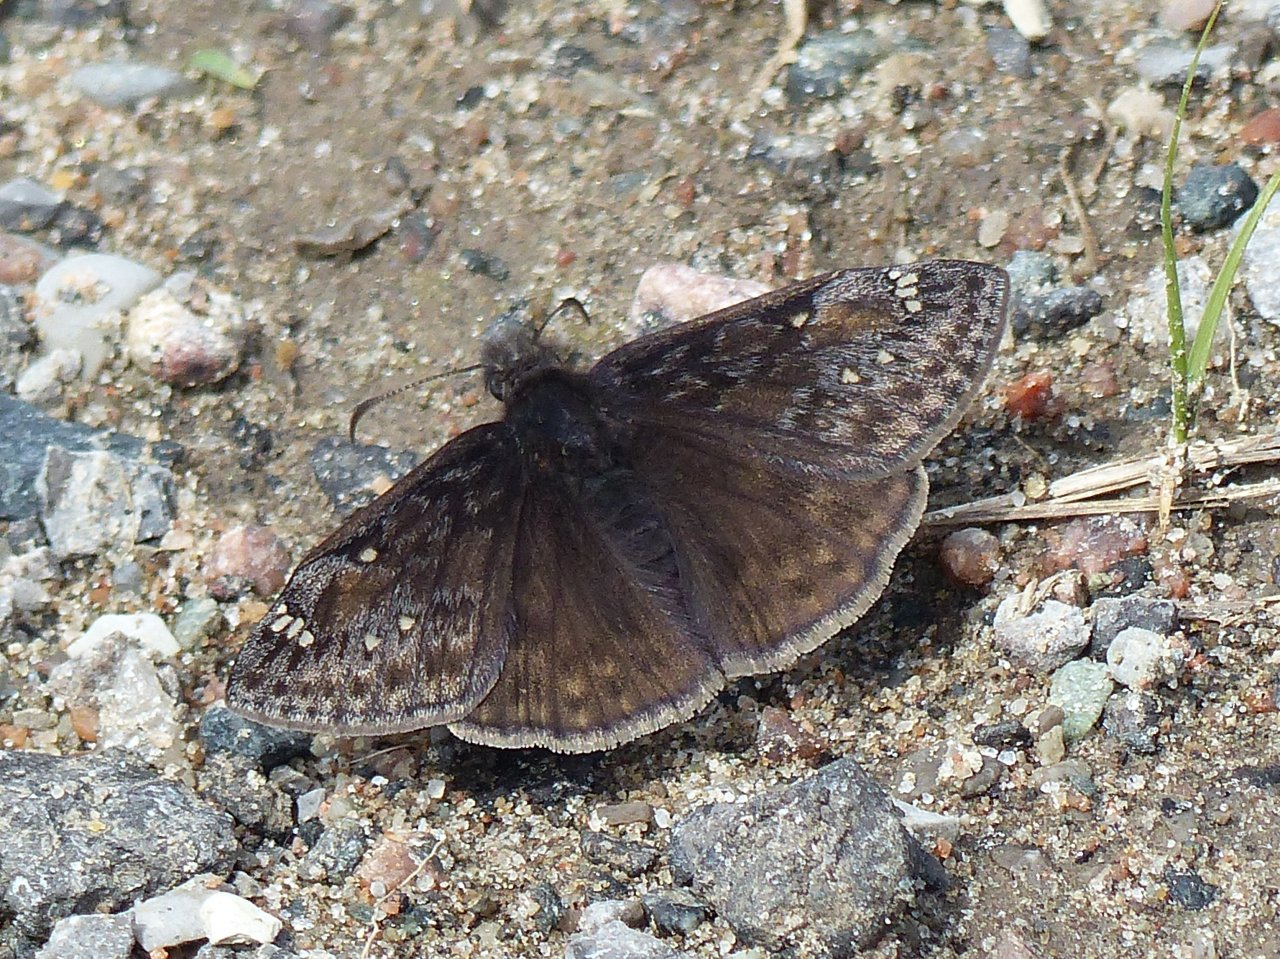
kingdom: Animalia
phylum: Arthropoda
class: Insecta
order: Lepidoptera
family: Hesperiidae
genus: Gesta
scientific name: Gesta
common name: Juvenal's Duskywing
